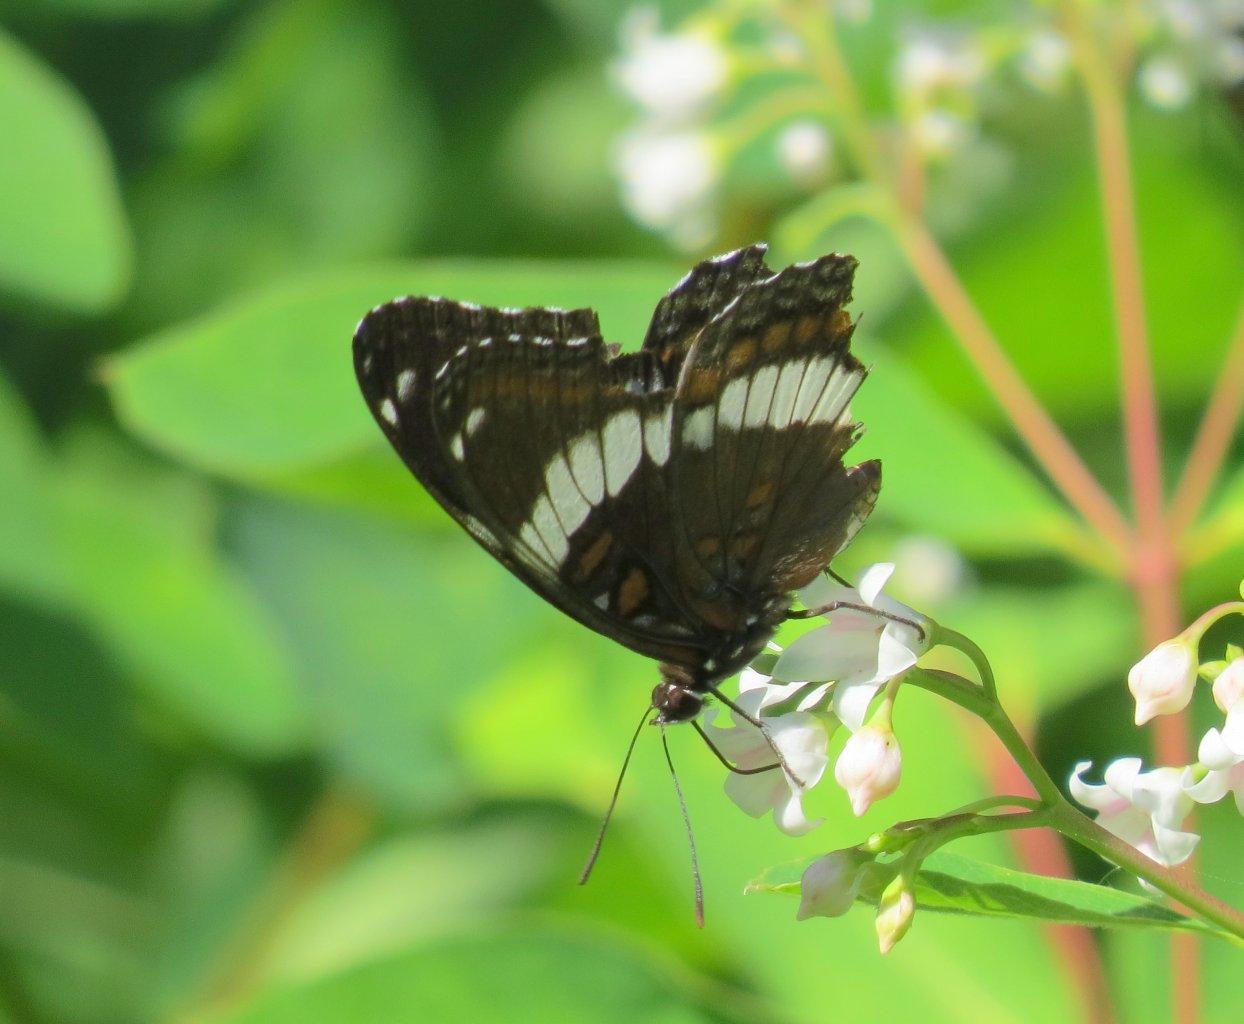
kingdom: Animalia
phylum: Arthropoda
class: Insecta
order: Lepidoptera
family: Nymphalidae
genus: Limenitis
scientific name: Limenitis arthemis
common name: Red-spotted Admiral
